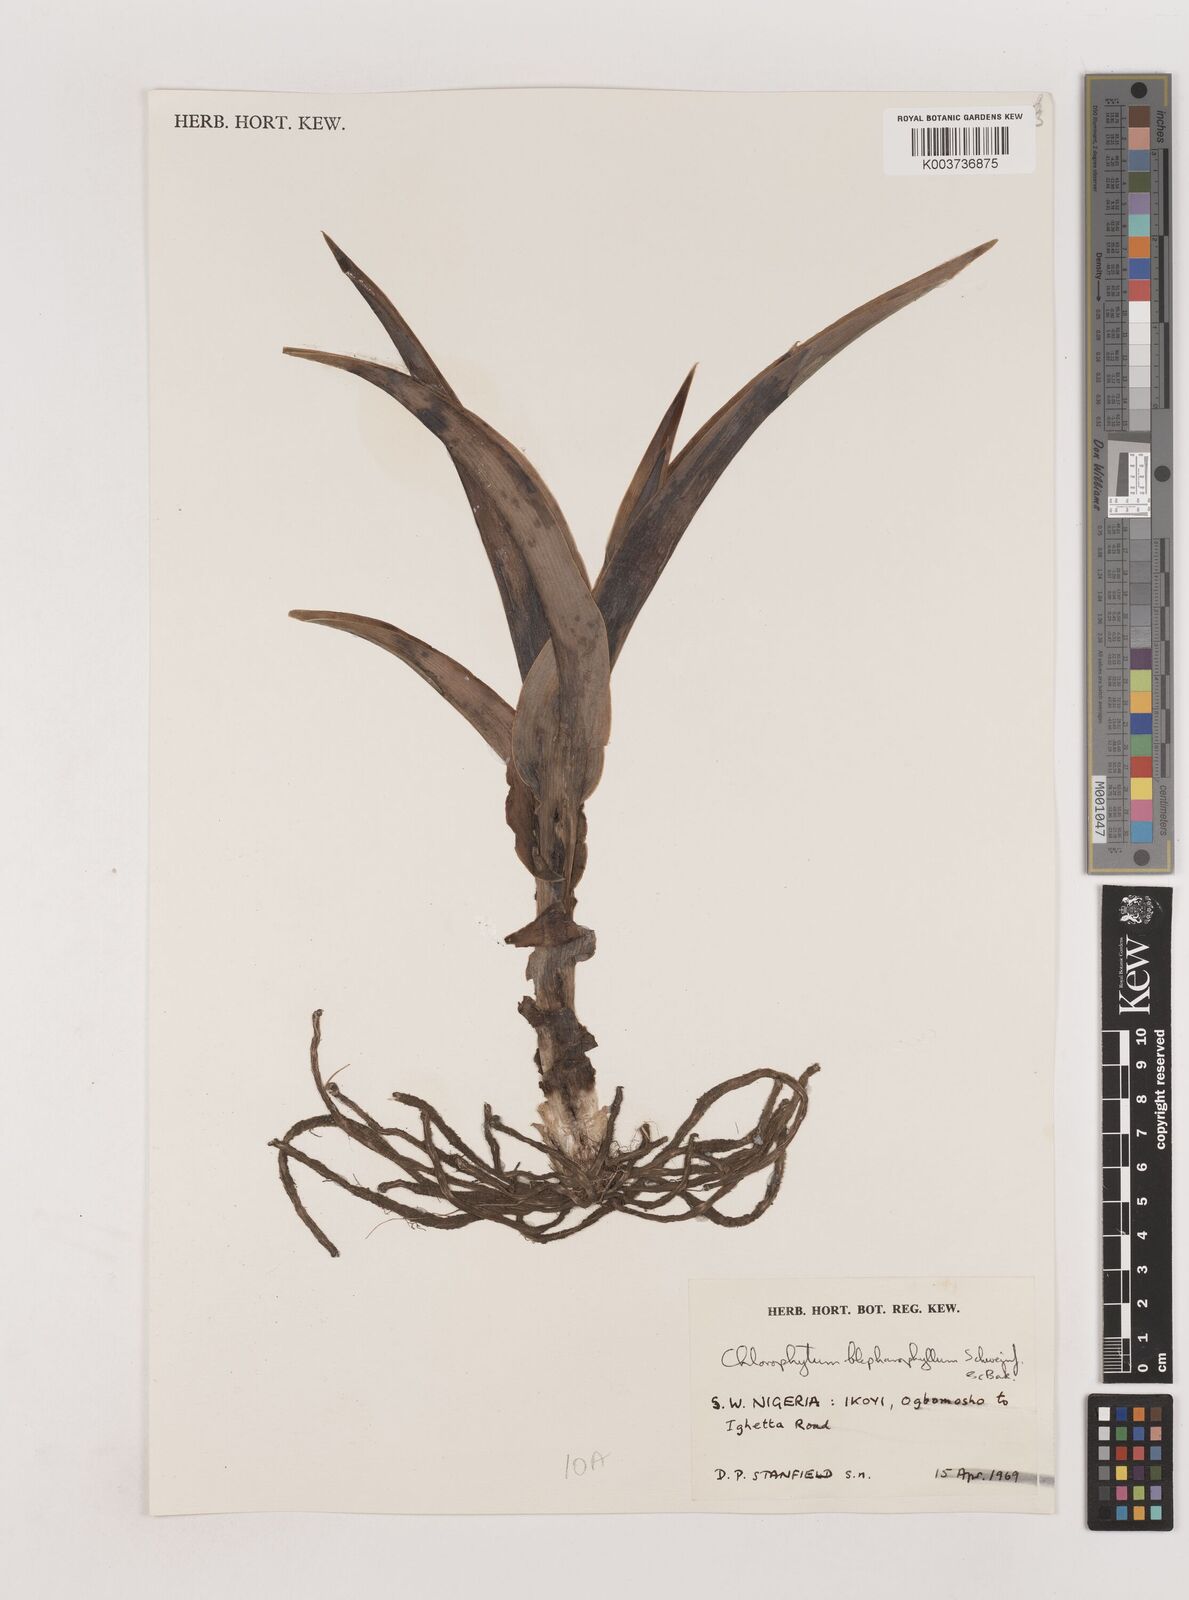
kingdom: Plantae
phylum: Tracheophyta
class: Liliopsida
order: Asparagales
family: Asparagaceae
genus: Chlorophytum
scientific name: Chlorophytum blepharophyllum
